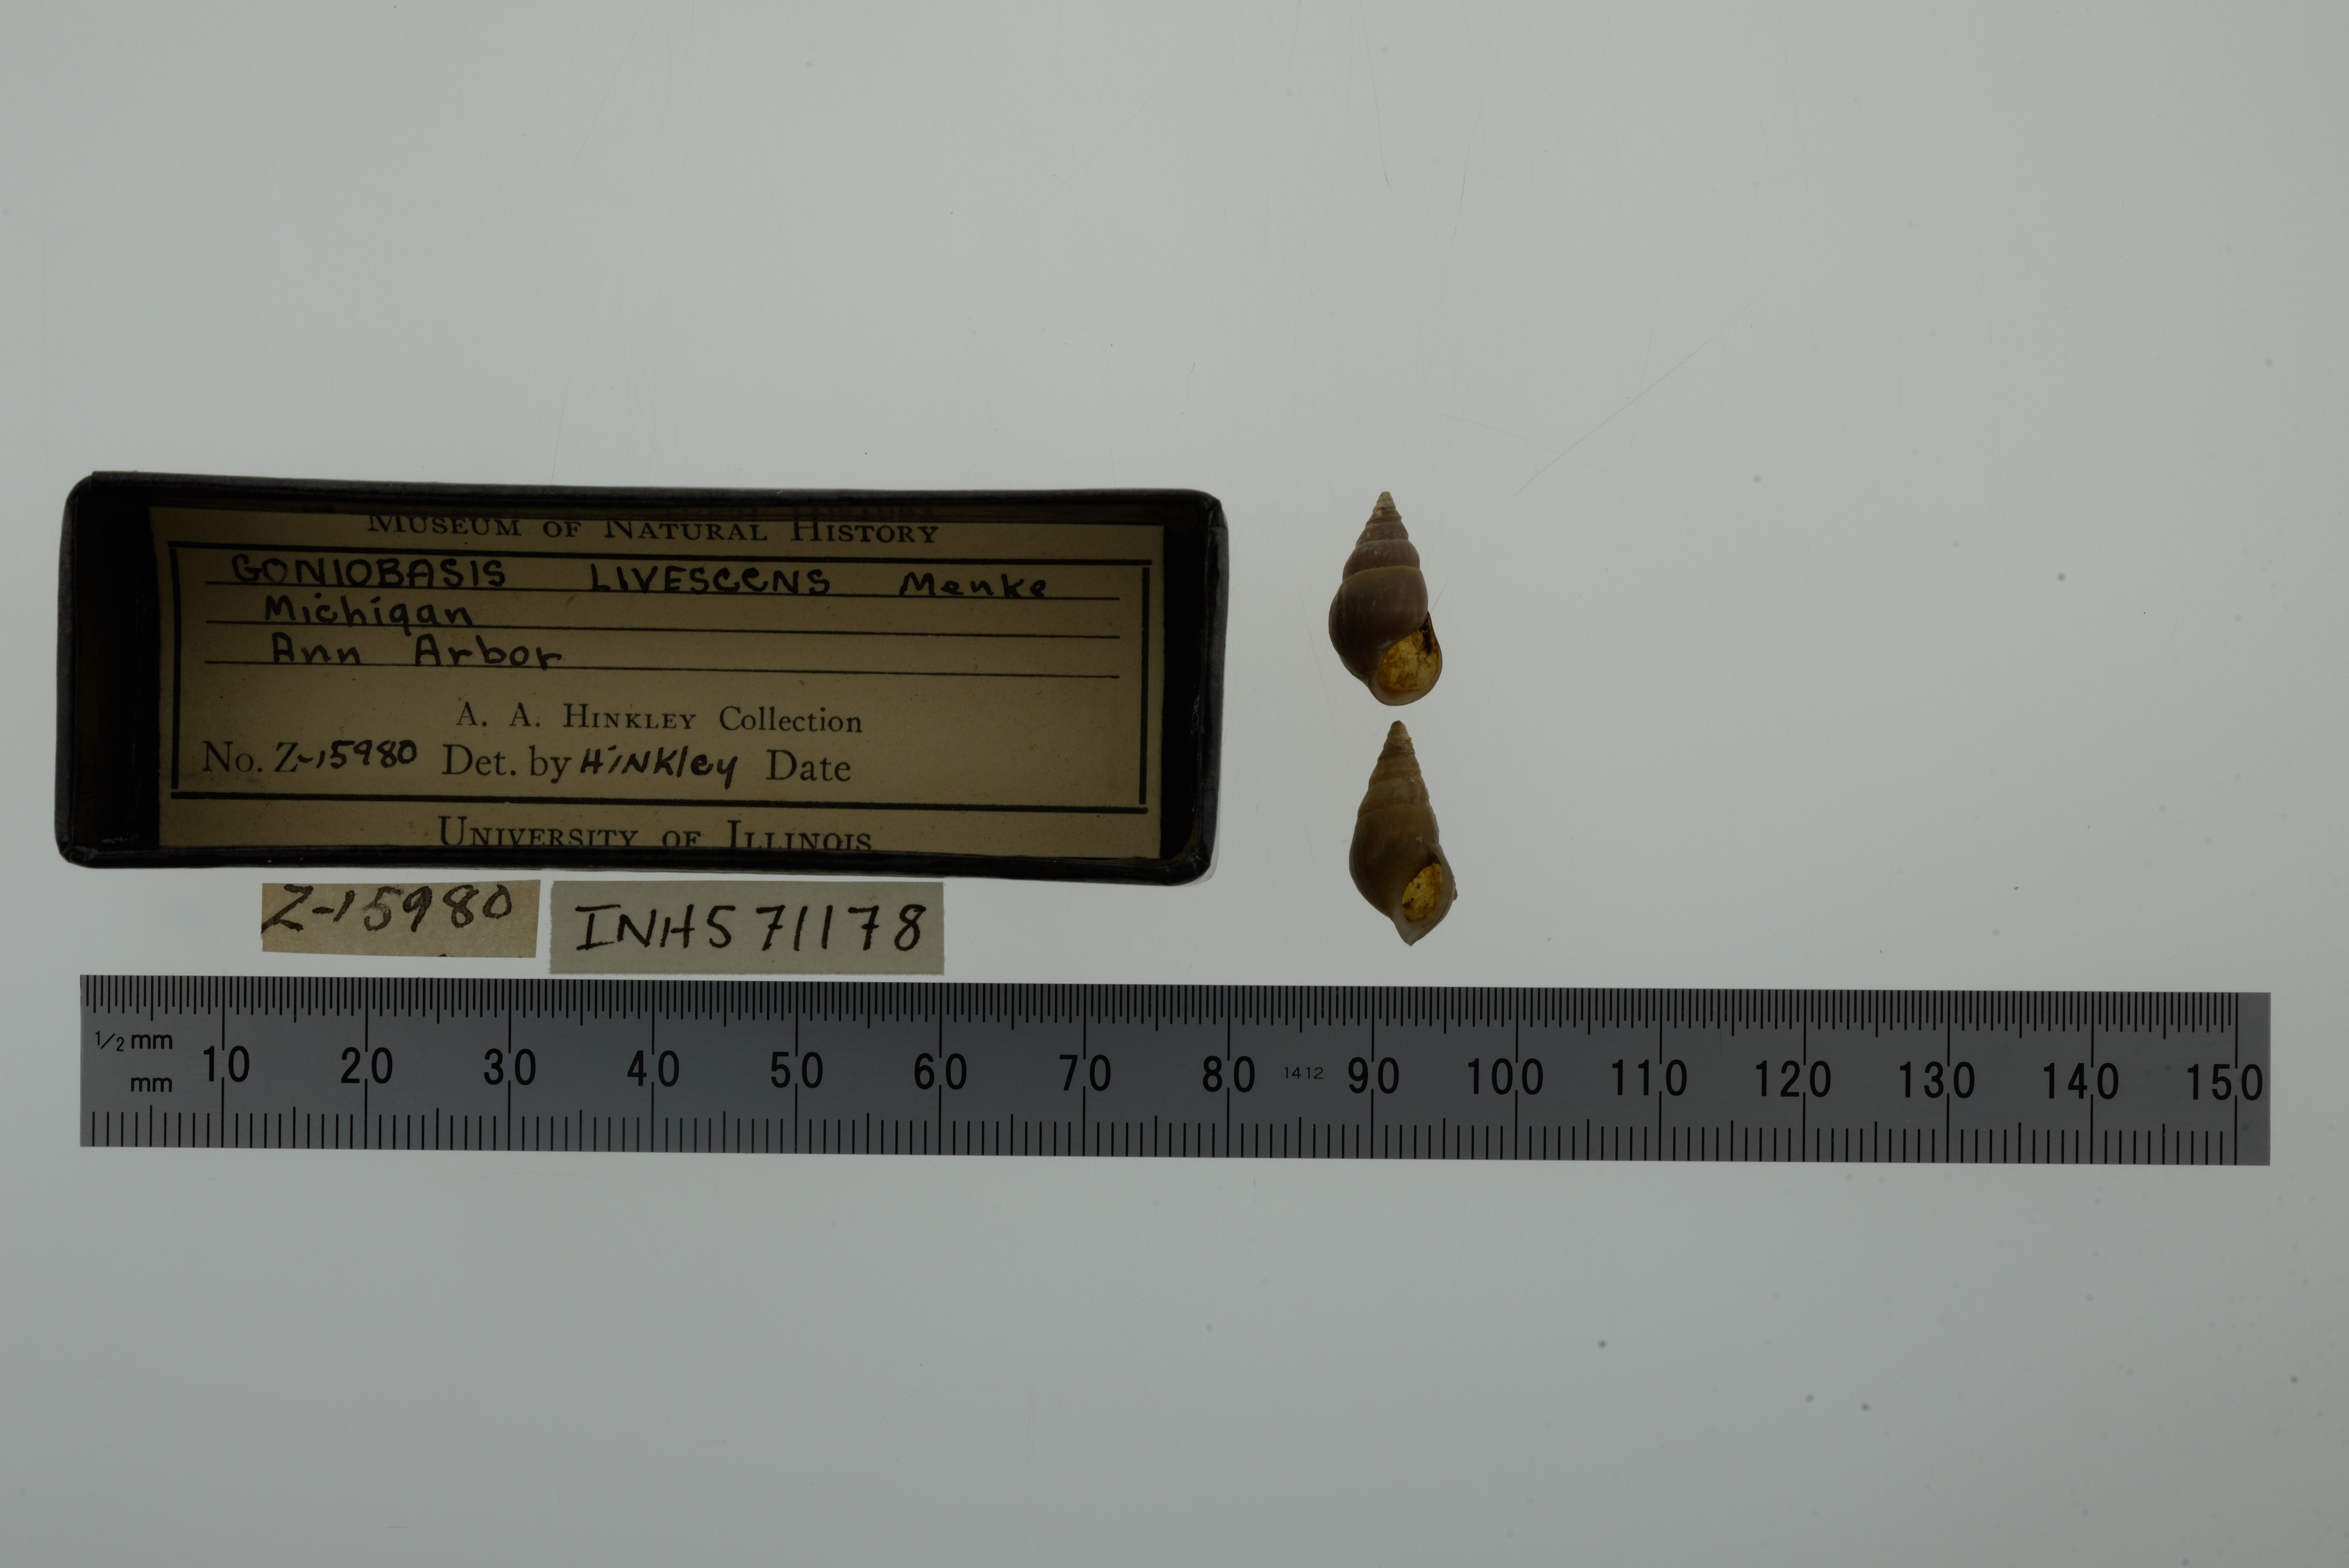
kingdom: Animalia
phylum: Mollusca
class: Gastropoda
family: Pleuroceridae
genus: Elimia
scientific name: Elimia livescens
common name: Liver elimia
